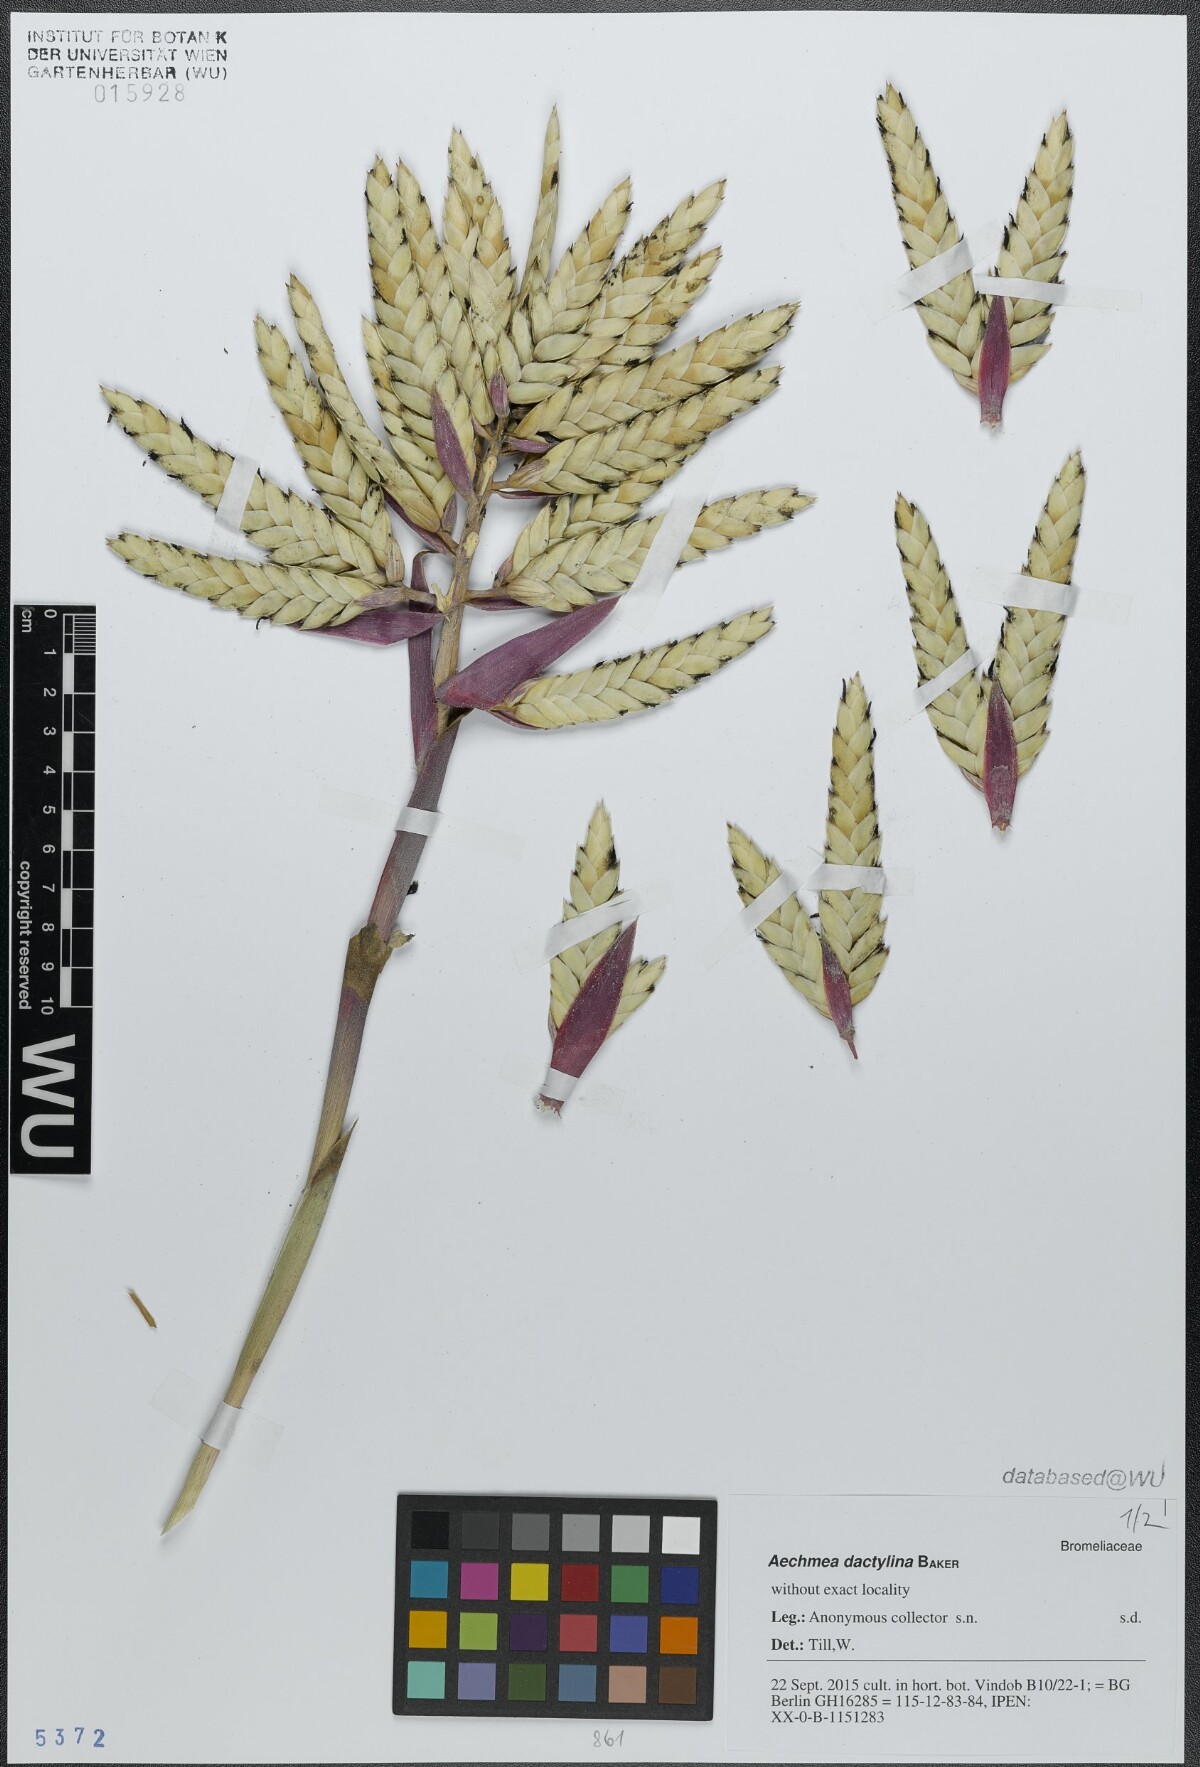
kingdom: Plantae
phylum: Tracheophyta
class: Liliopsida
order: Poales
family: Bromeliaceae
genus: Aechmea
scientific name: Aechmea dactylina
